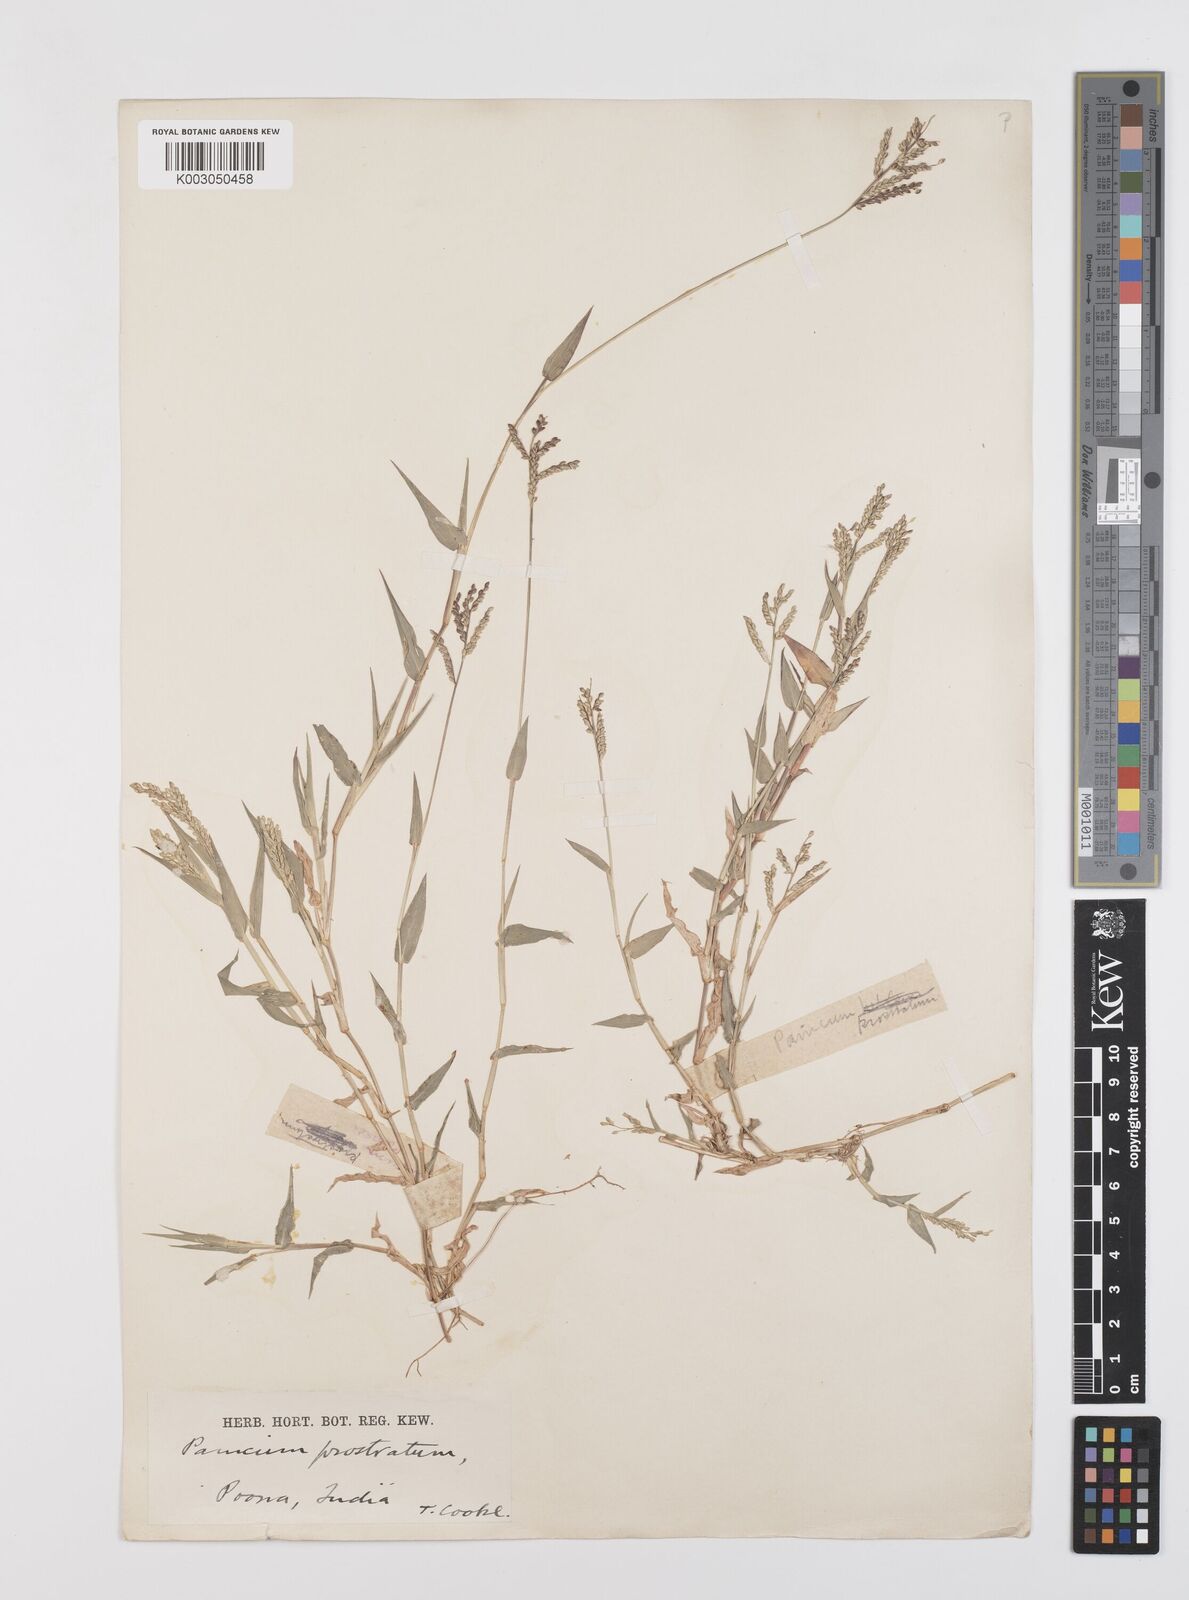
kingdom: Plantae
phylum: Tracheophyta
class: Liliopsida
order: Poales
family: Poaceae
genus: Urochloa
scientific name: Urochloa reptans
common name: Sprawling signalgrass
